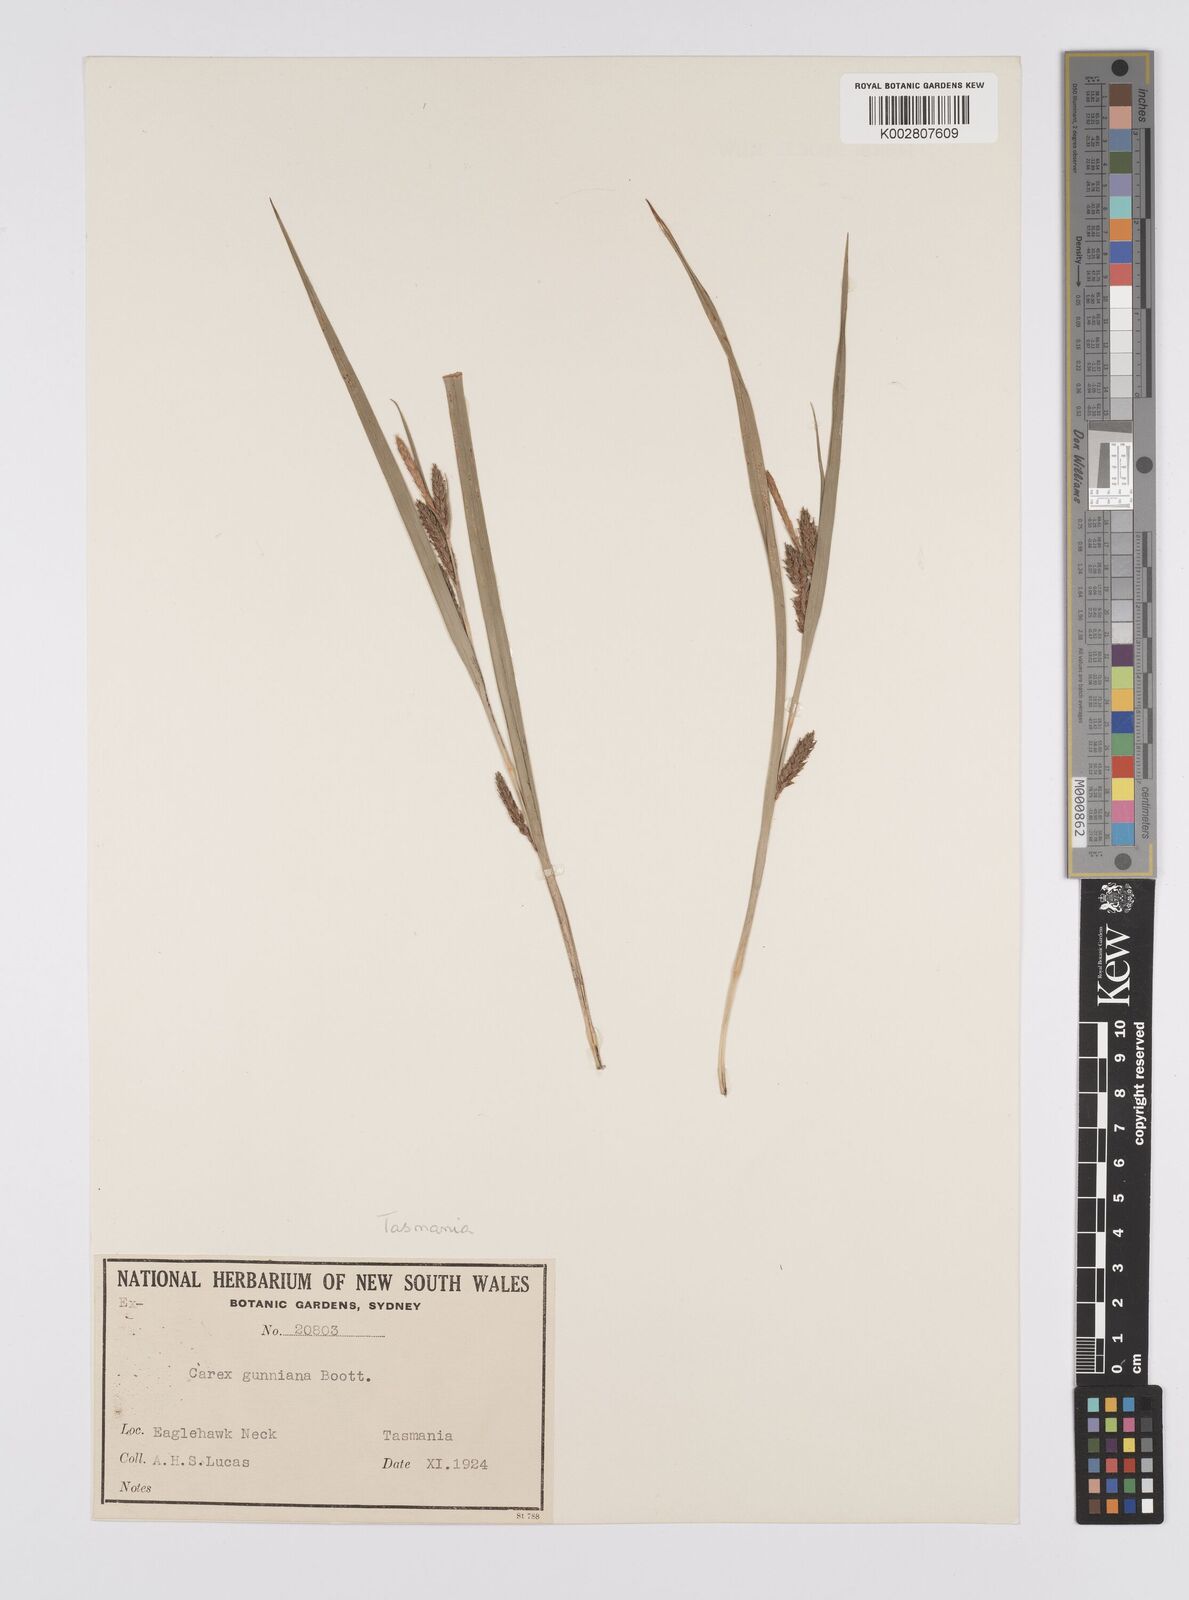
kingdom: Plantae
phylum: Tracheophyta
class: Liliopsida
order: Poales
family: Cyperaceae
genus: Carex
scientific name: Carex gunniana
